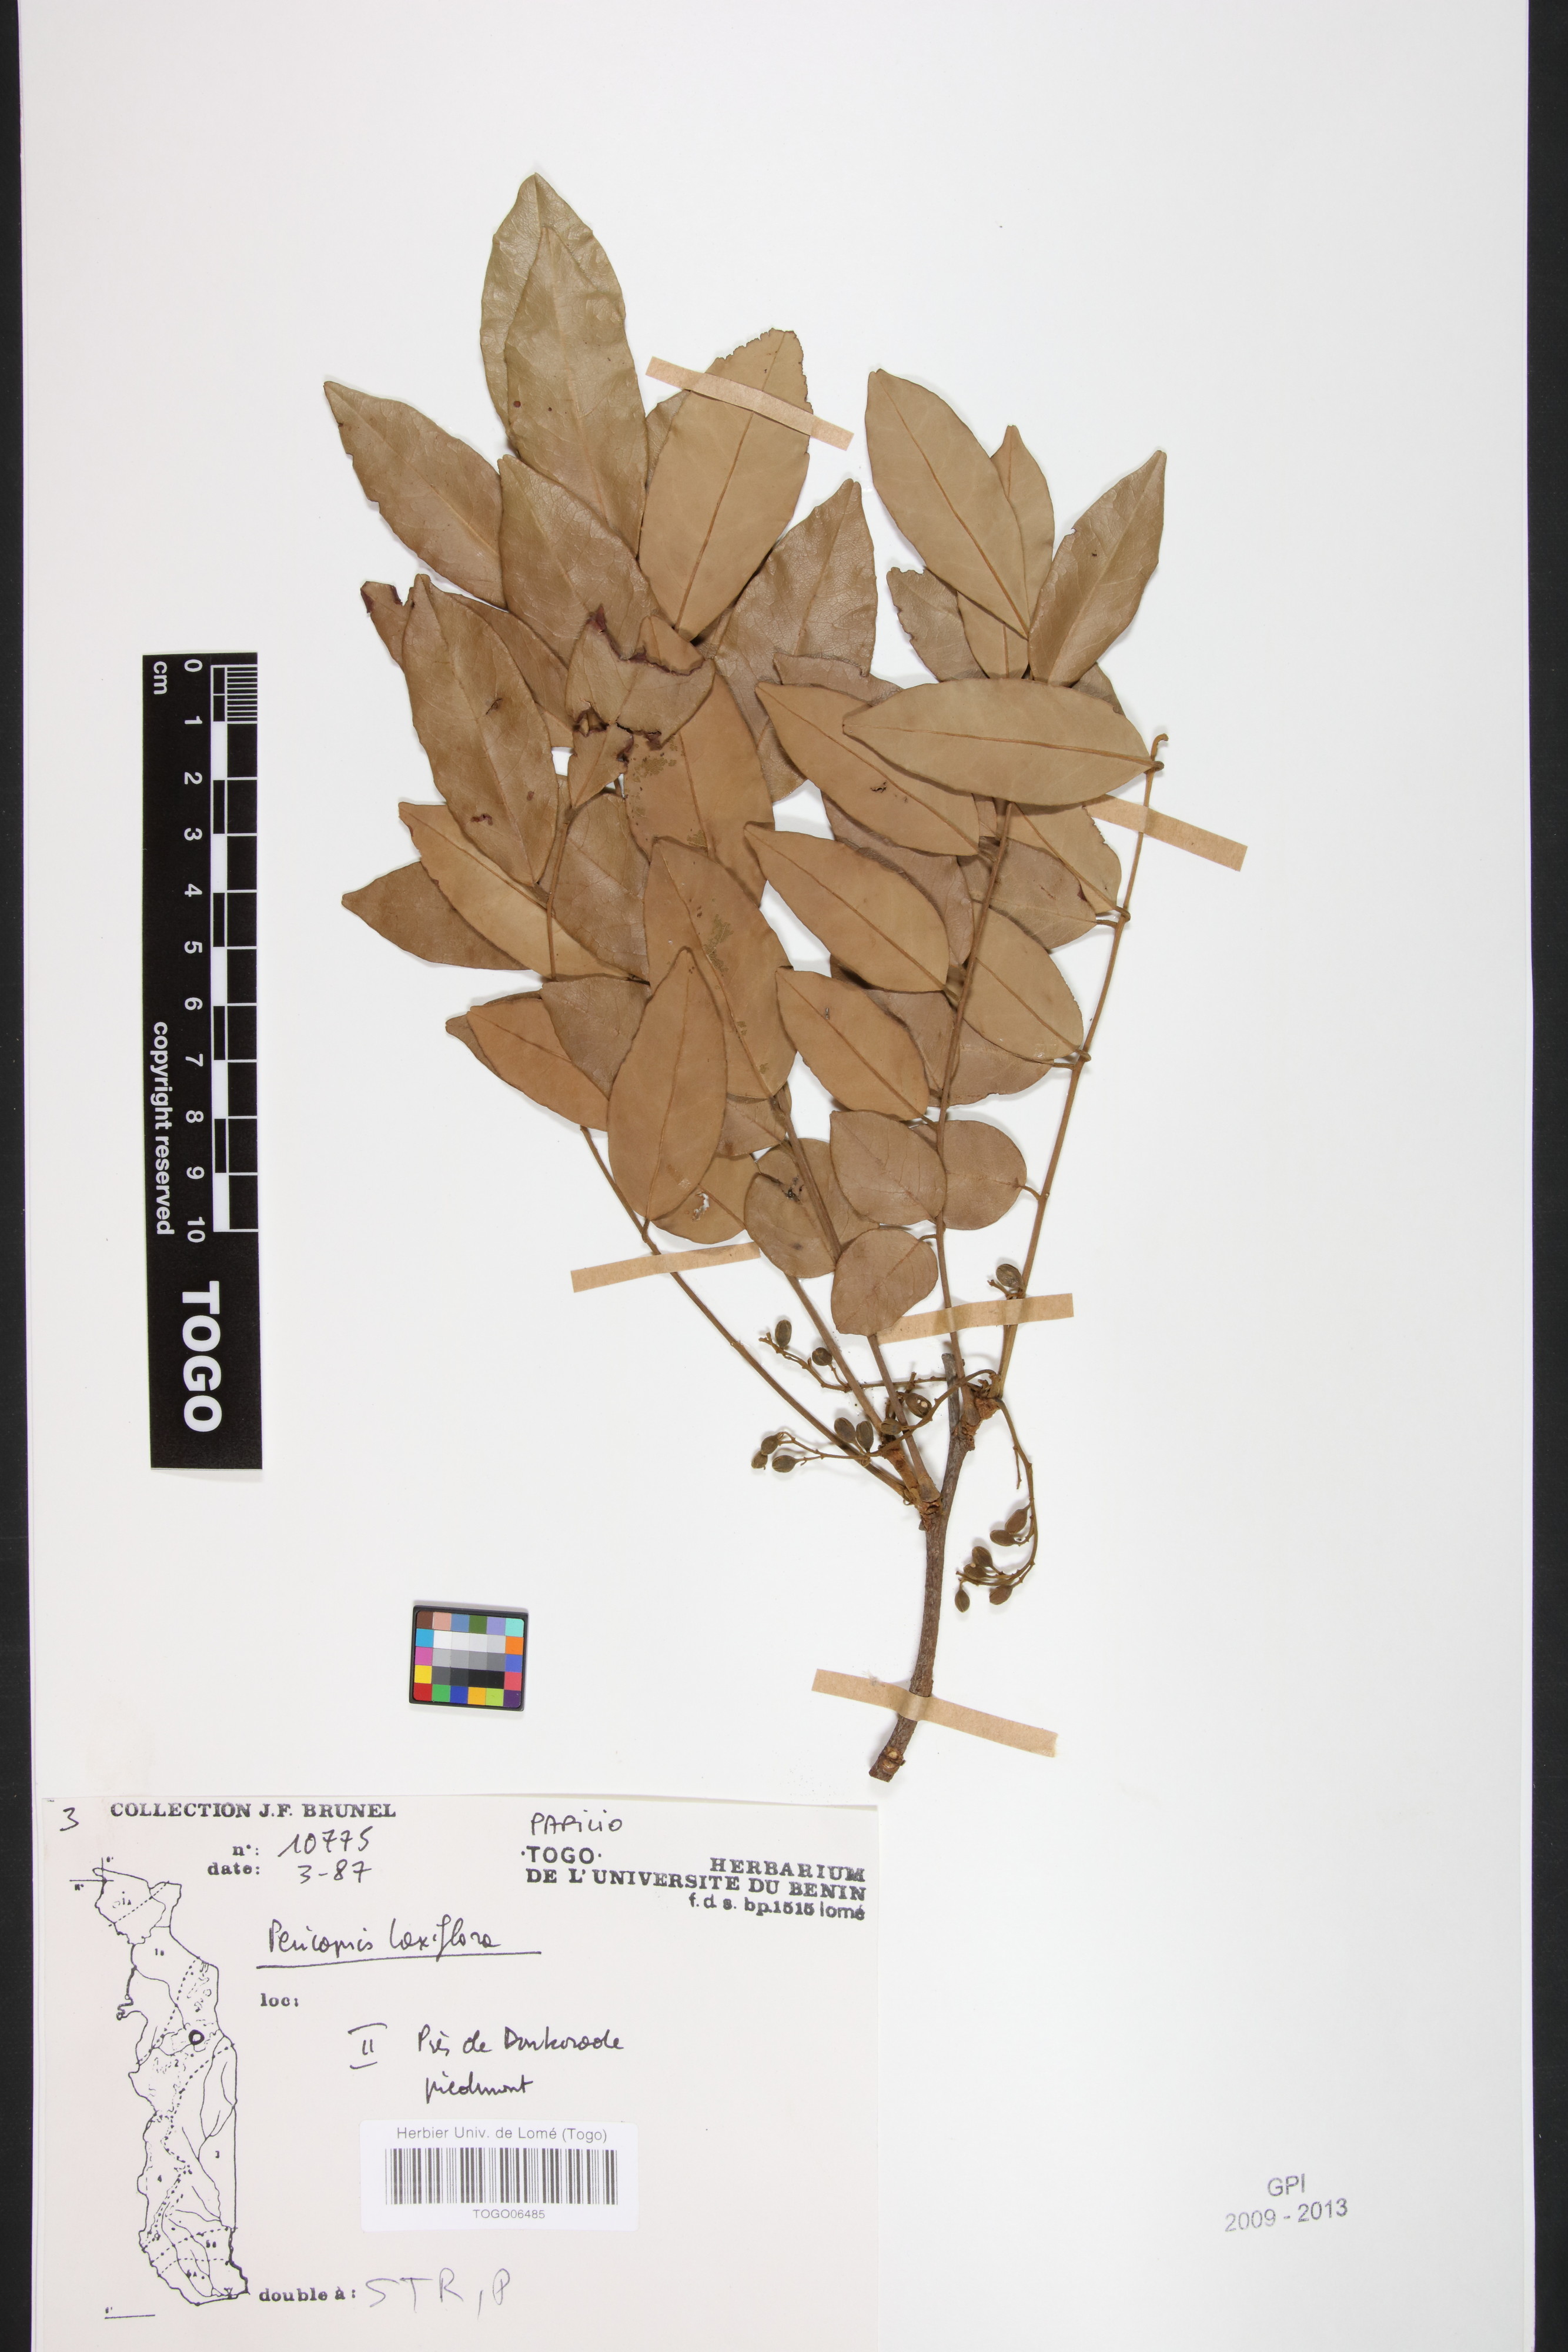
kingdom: Plantae
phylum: Tracheophyta
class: Magnoliopsida
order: Fabales
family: Fabaceae
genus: Pericopsis
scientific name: Pericopsis laxiflora
